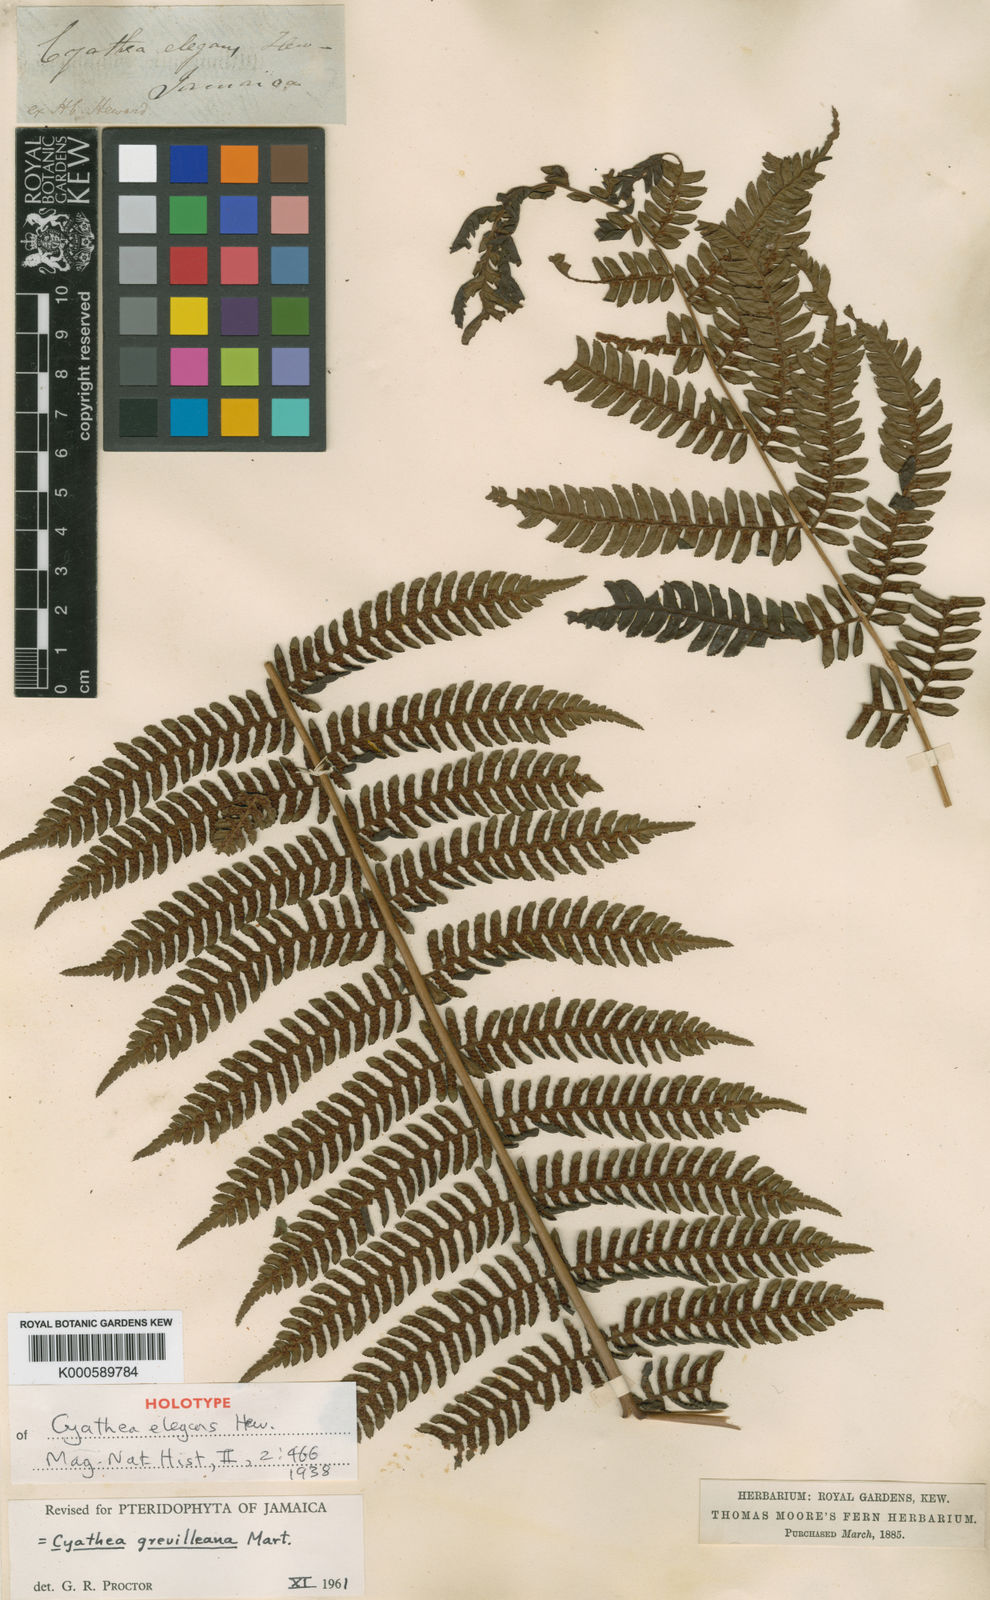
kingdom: Plantae
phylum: Tracheophyta
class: Polypodiopsida
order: Cyatheales
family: Cyatheaceae
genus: Alsophila
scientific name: Alsophila grevilleana
